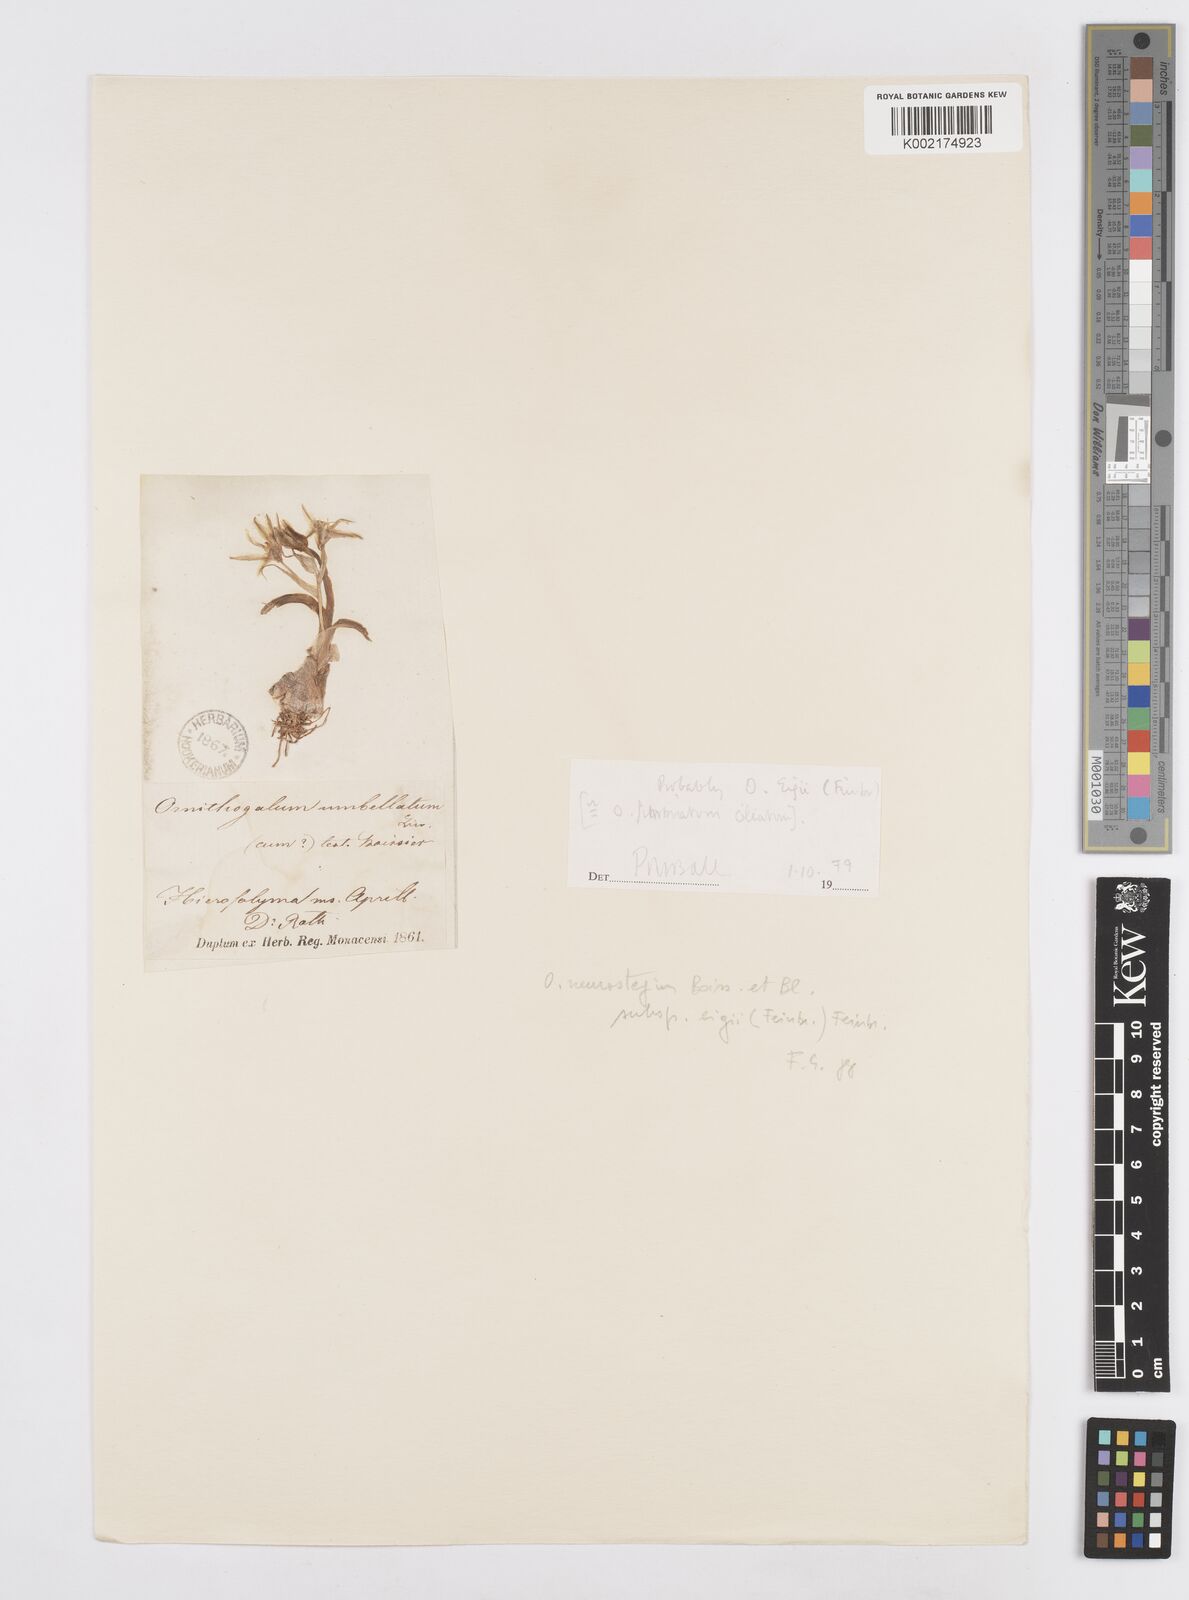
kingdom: Plantae
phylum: Tracheophyta
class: Liliopsida
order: Asparagales
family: Asparagaceae
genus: Ornithogalum
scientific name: Ornithogalum umbellatum
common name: Garden star-of-bethlehem
